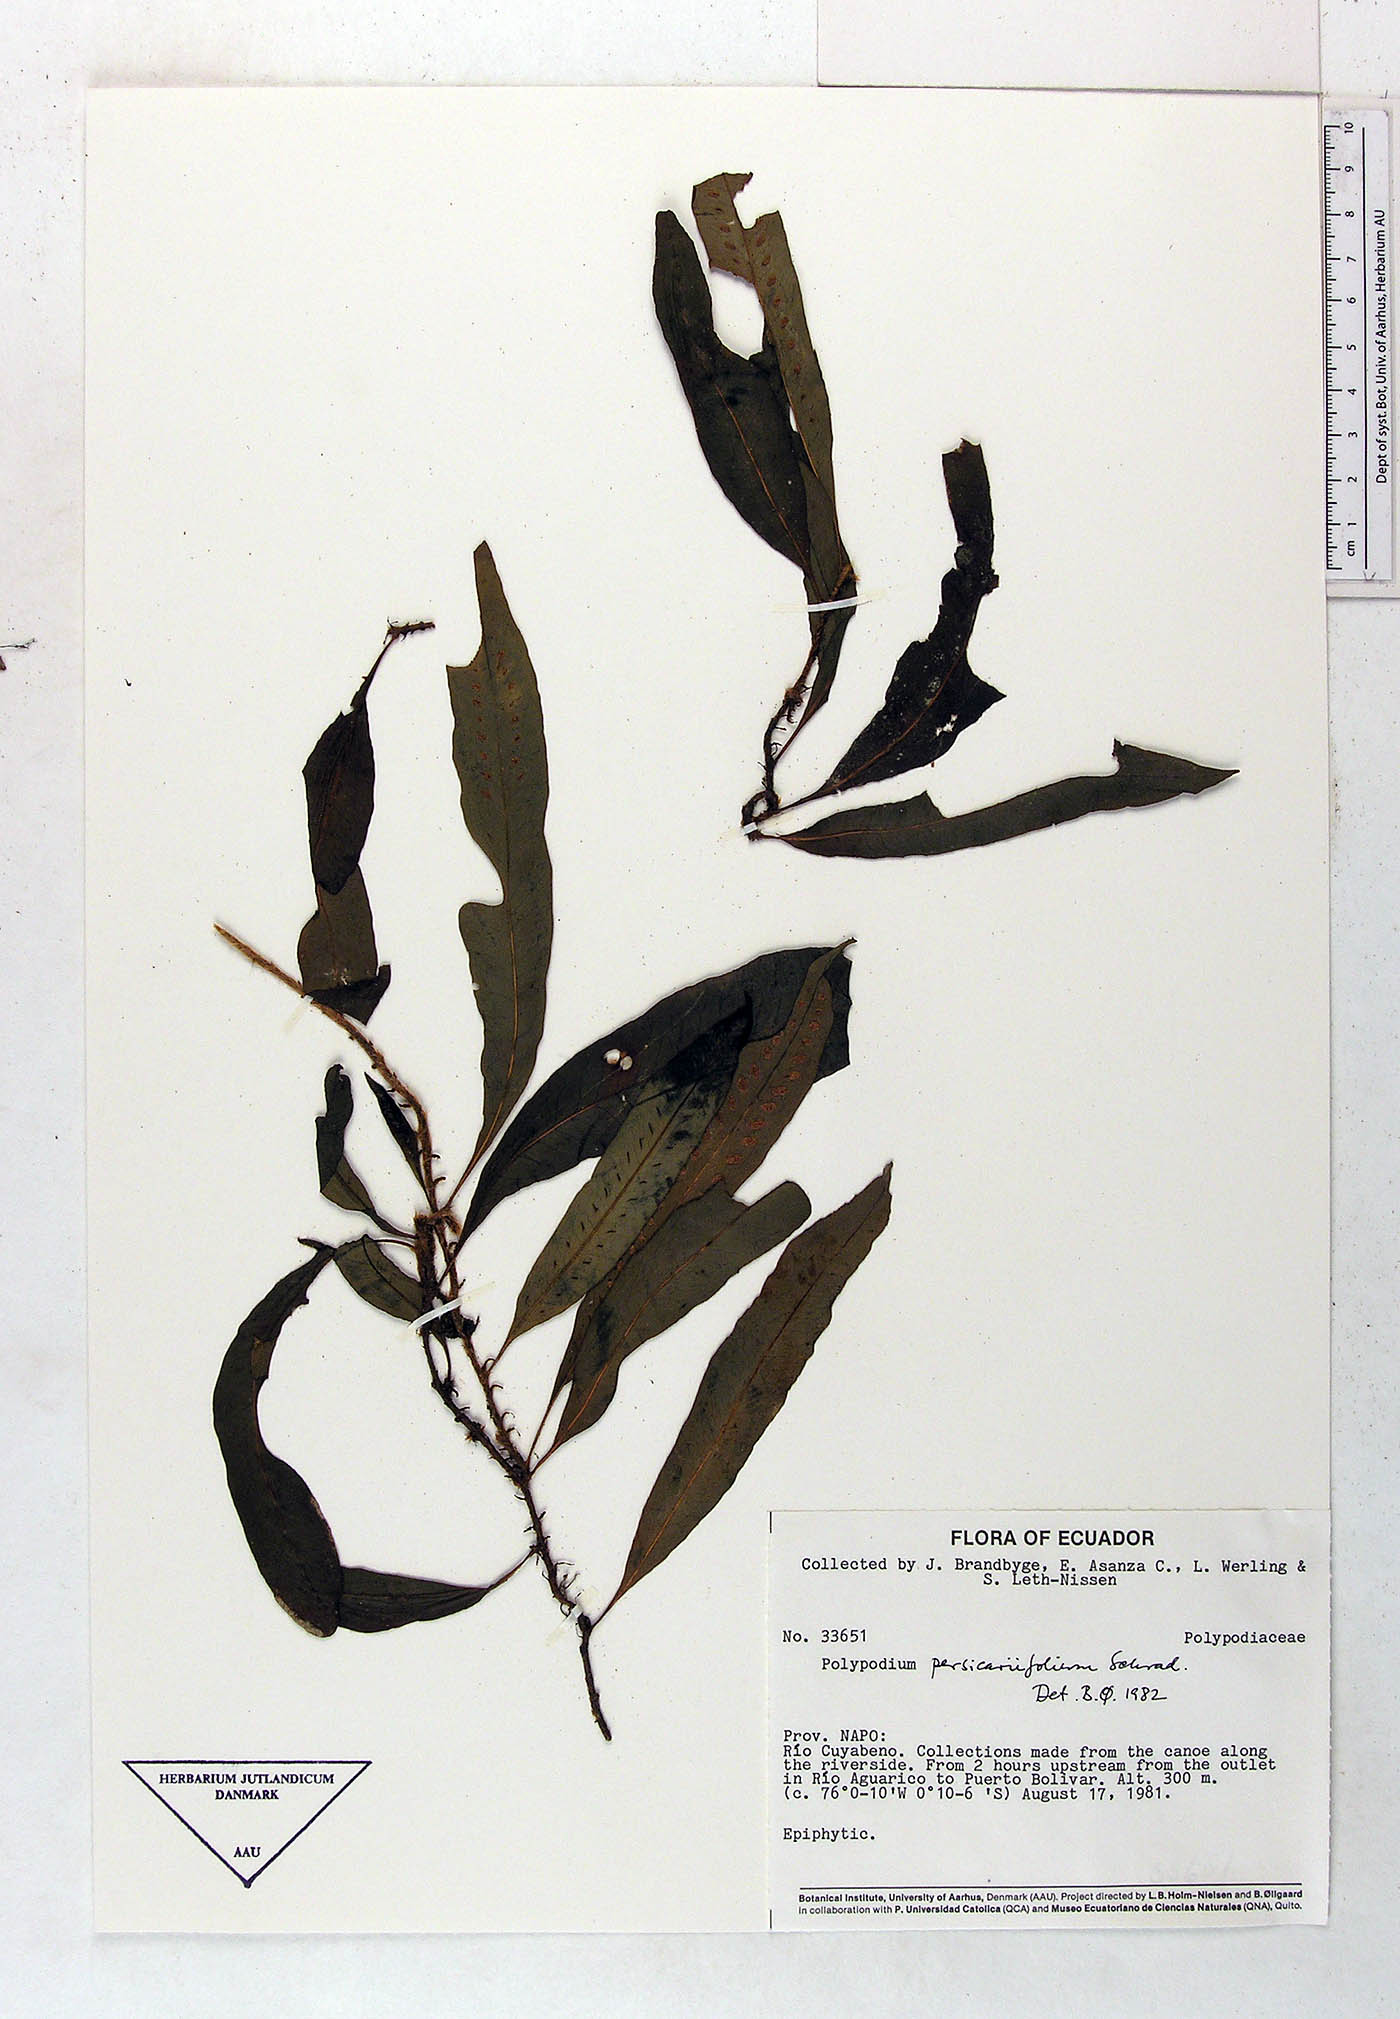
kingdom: Plantae
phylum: Tracheophyta
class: Polypodiopsida
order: Polypodiales
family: Polypodiaceae
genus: Microgramma
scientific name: Microgramma persicariifolia
